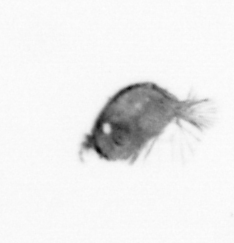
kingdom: Animalia
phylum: Arthropoda
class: Maxillopoda
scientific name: Maxillopoda
